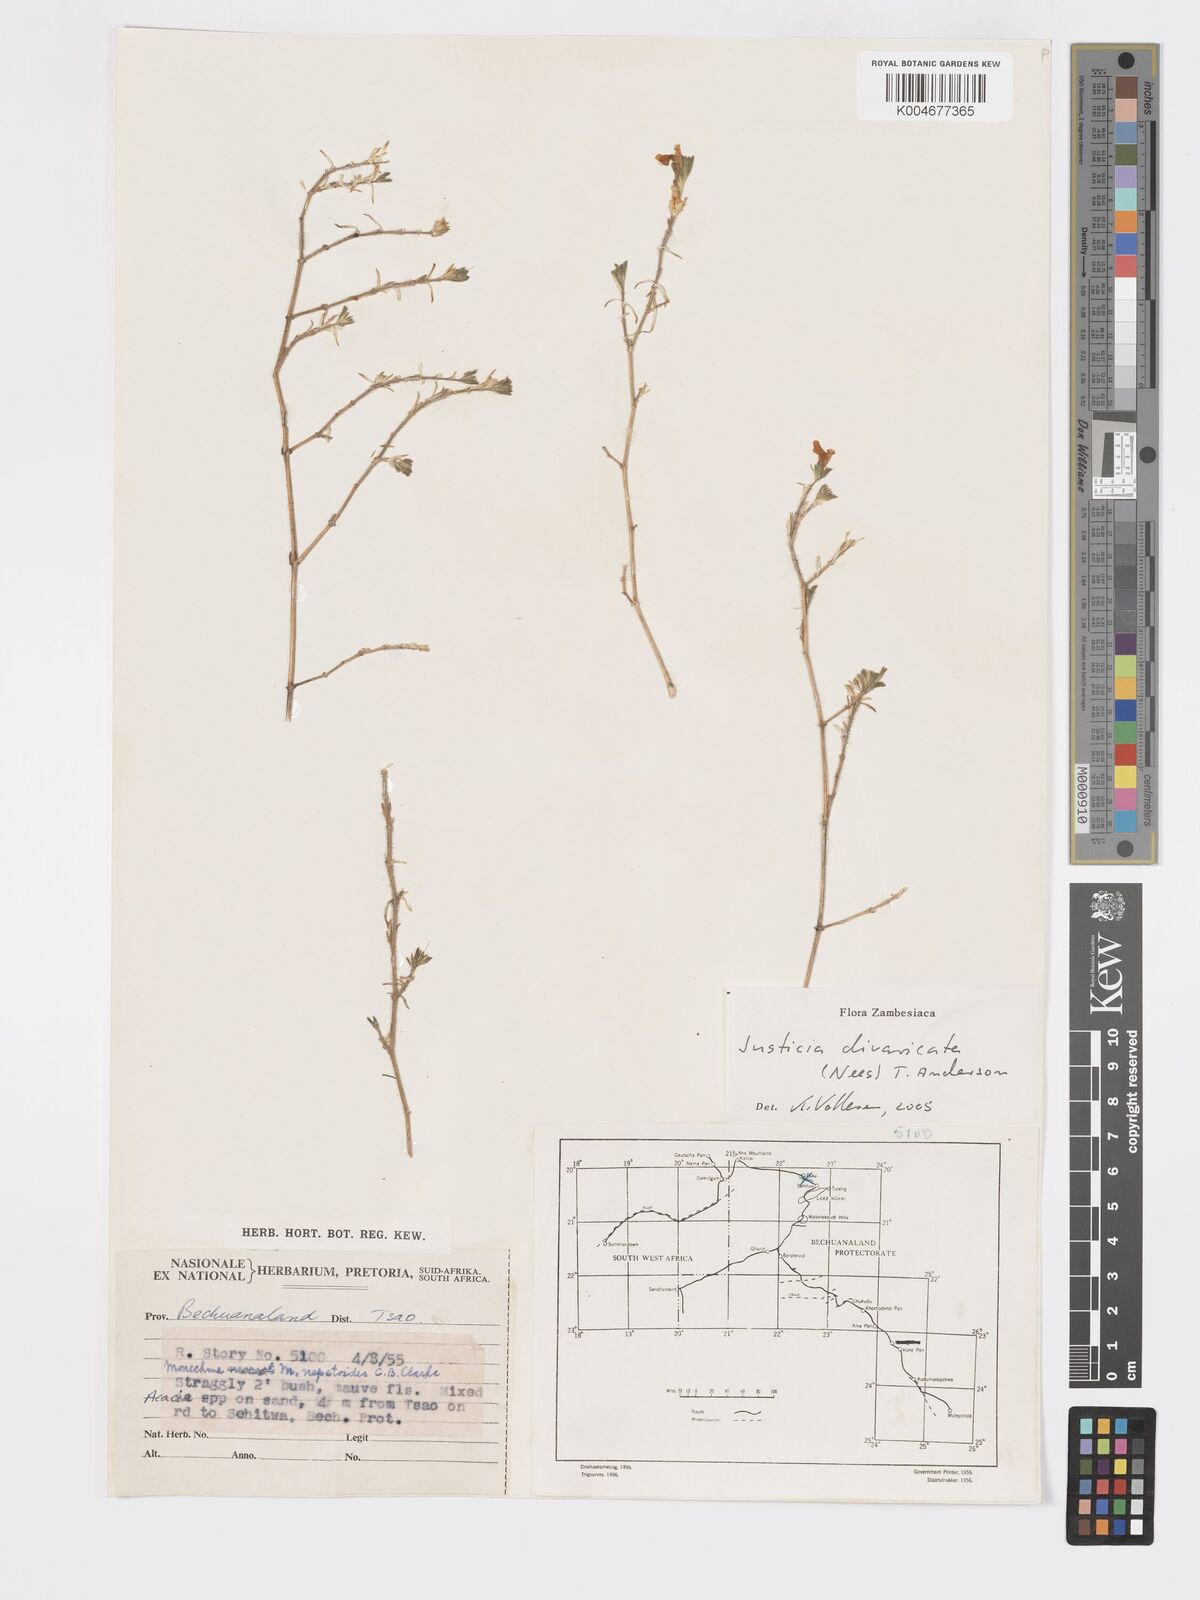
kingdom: Plantae
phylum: Tracheophyta
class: Magnoliopsida
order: Lamiales
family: Acanthaceae
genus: Pogonospermum
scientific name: Pogonospermum
